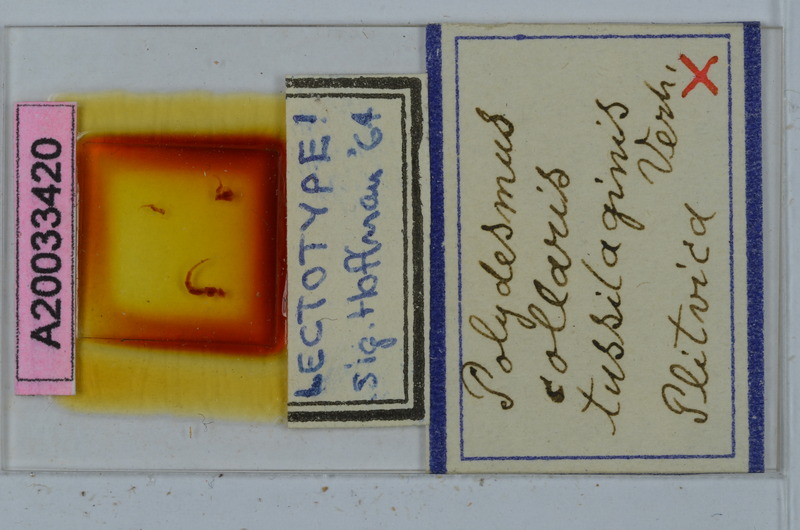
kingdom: Animalia
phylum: Arthropoda
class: Diplopoda
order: Polydesmida
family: Polydesmidae
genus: Polydesmus
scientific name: Polydesmus collaris
